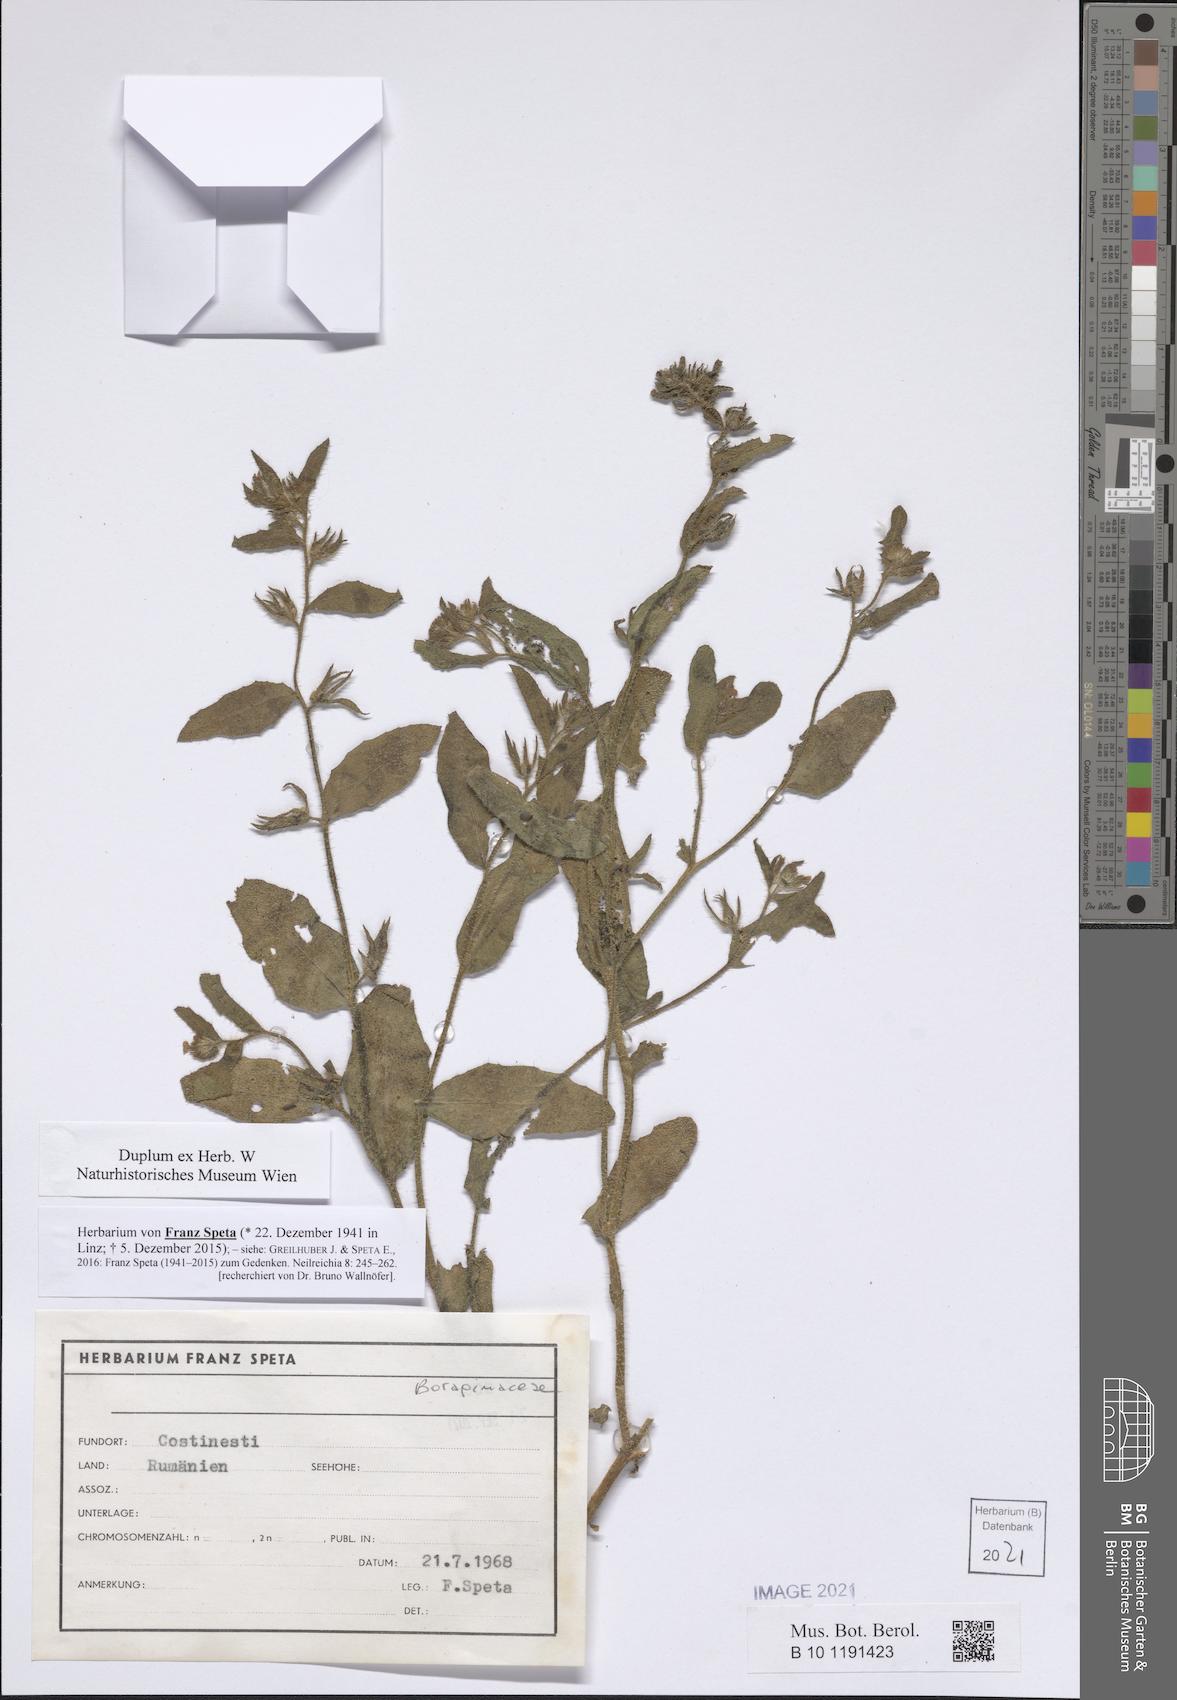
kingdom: Plantae
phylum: Tracheophyta
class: Magnoliopsida
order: Boraginales
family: Boraginaceae
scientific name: Boraginaceae
